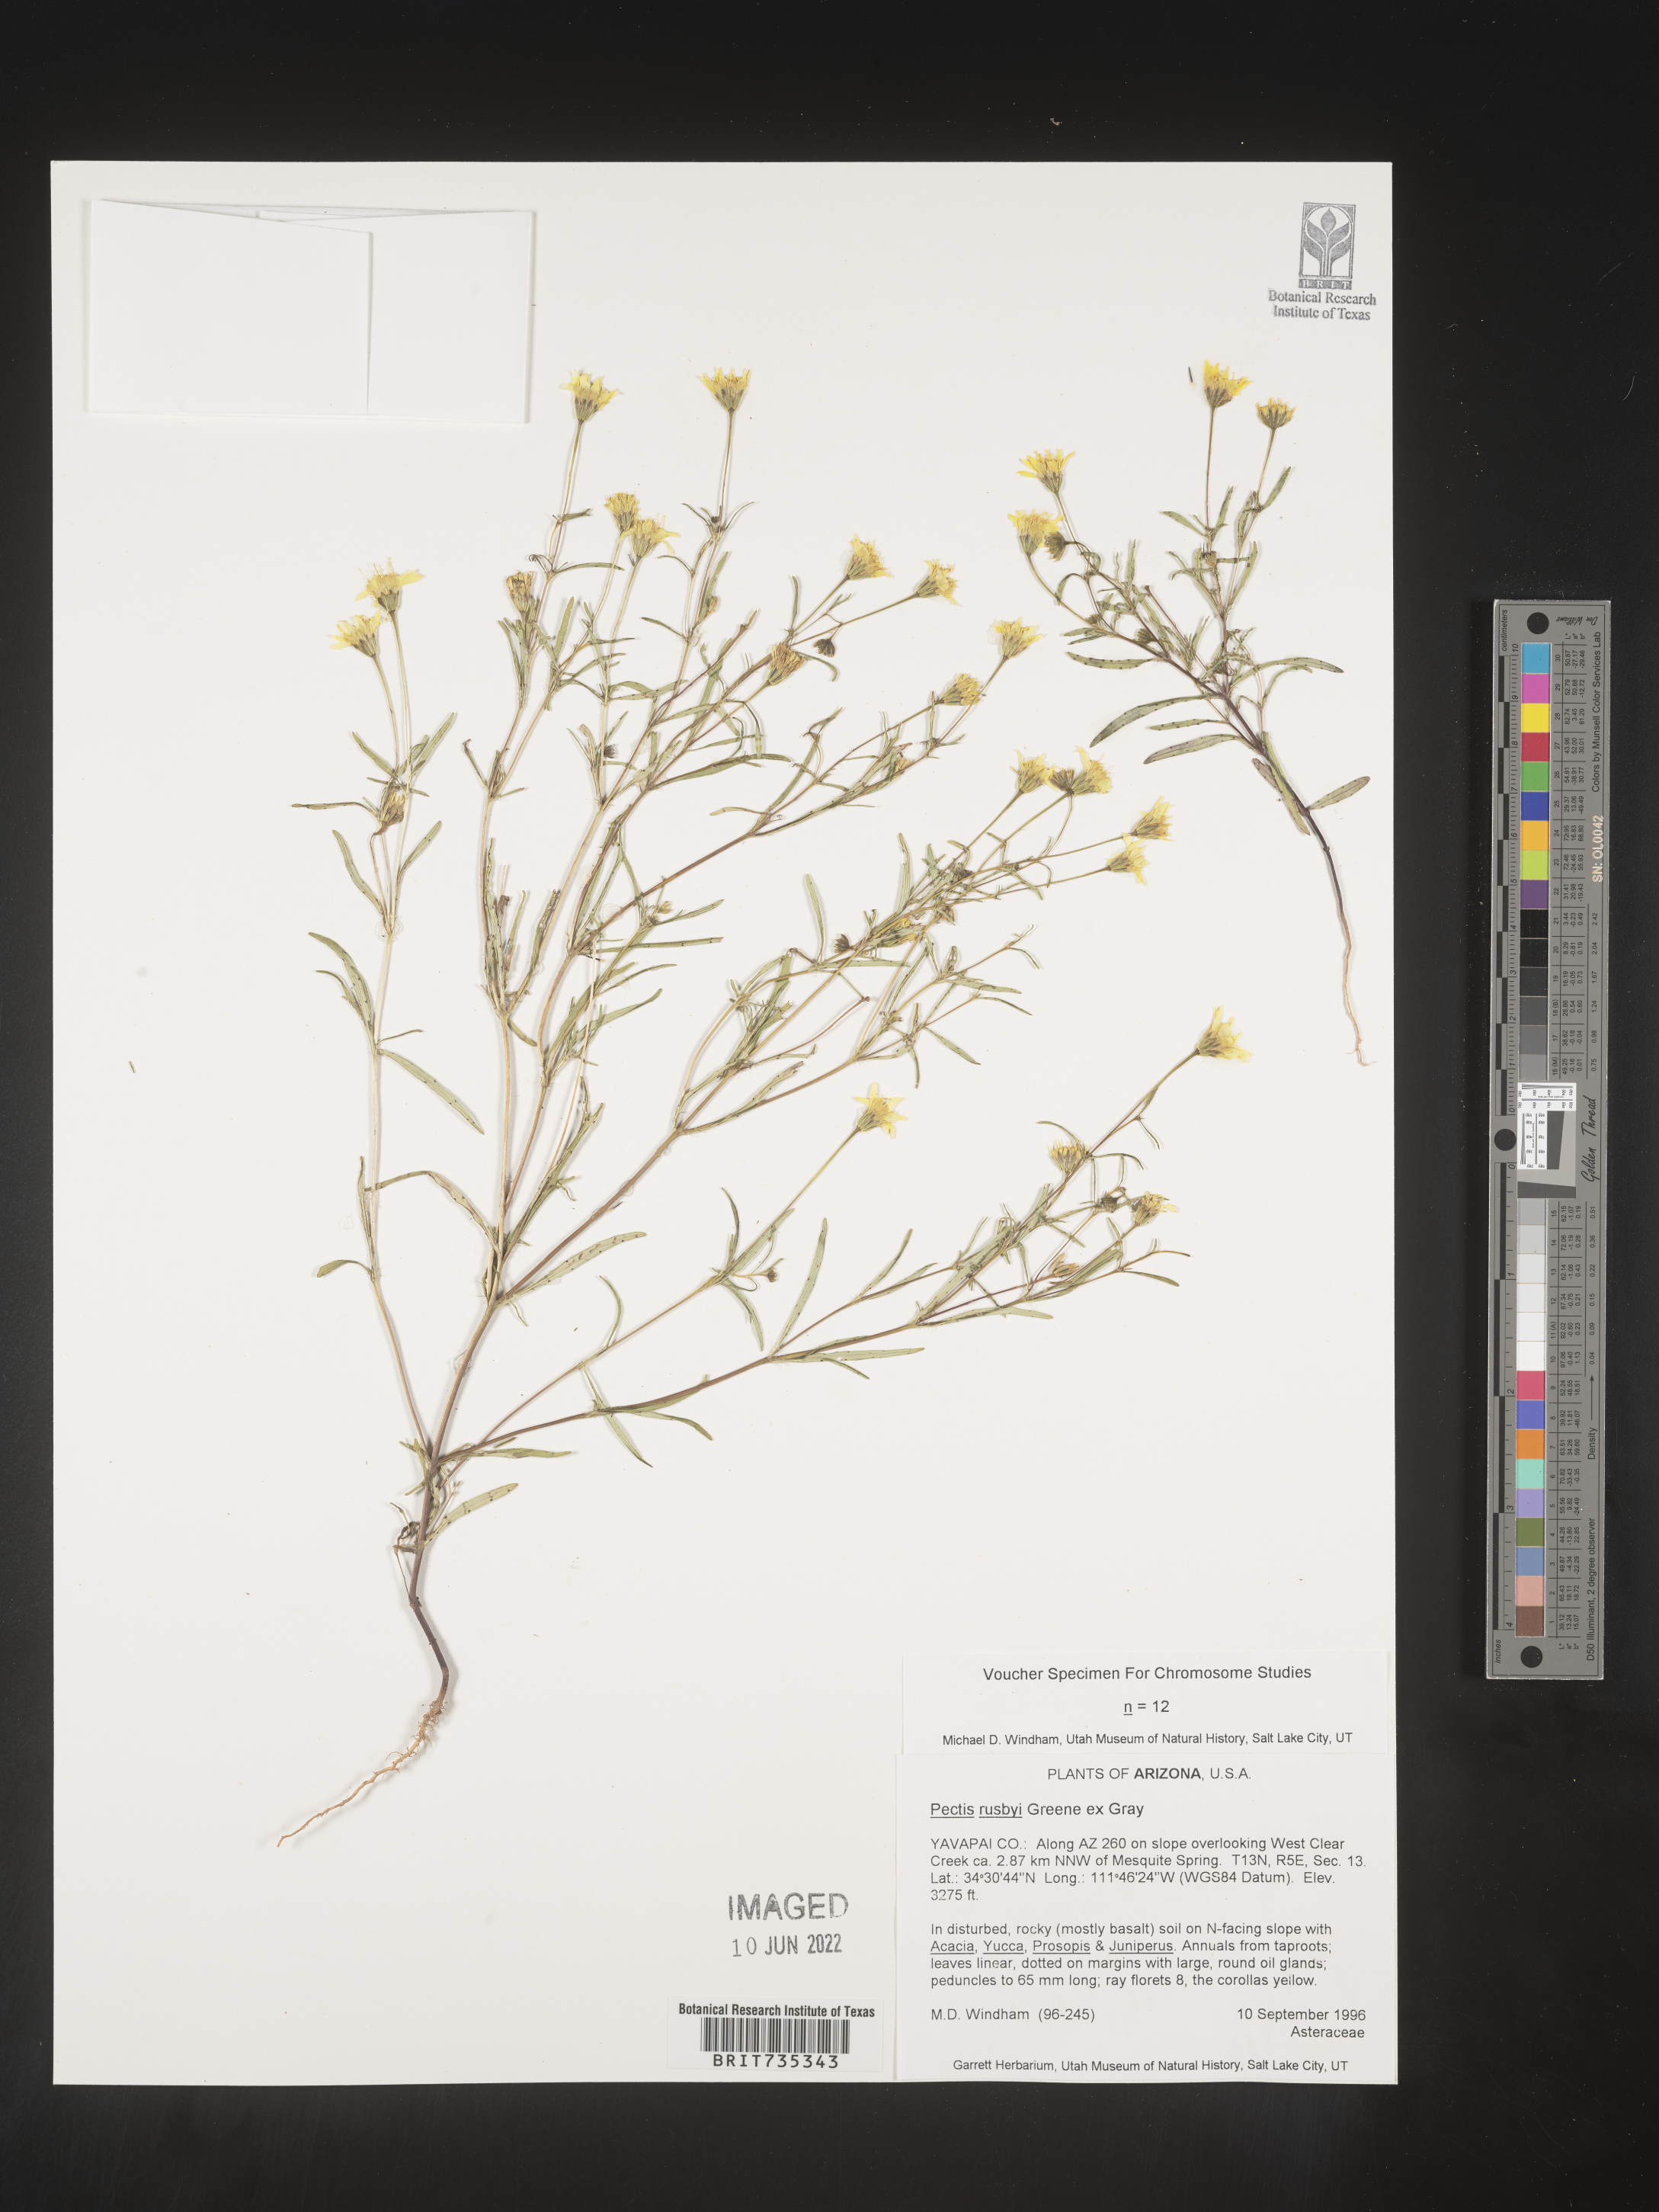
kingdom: Plantae
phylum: Tracheophyta
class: Magnoliopsida
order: Asterales
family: Asteraceae
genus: Pectis
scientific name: Pectis rusbyi
